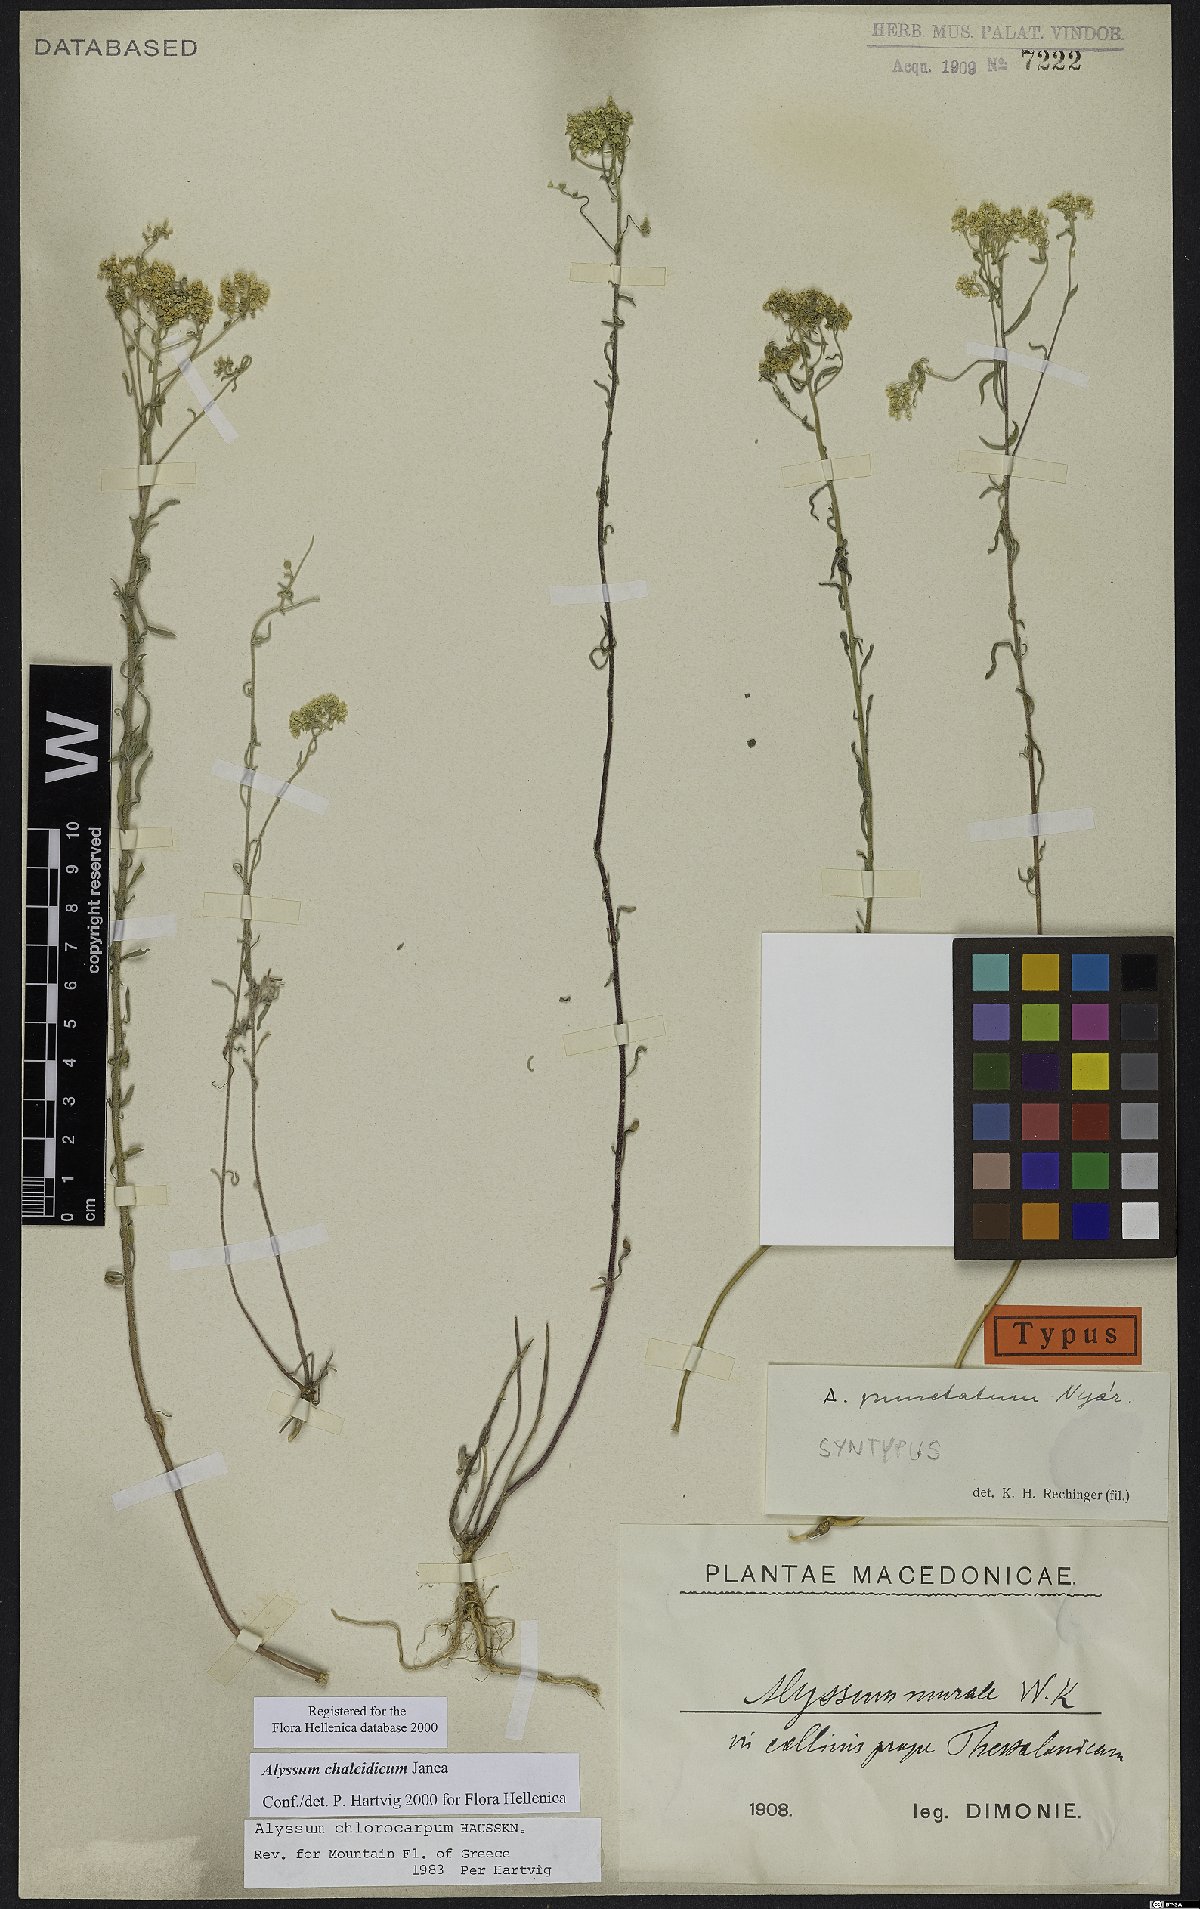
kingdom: Plantae
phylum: Tracheophyta
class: Magnoliopsida
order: Brassicales
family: Brassicaceae
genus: Odontarrhena
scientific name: Odontarrhena chalcidica
